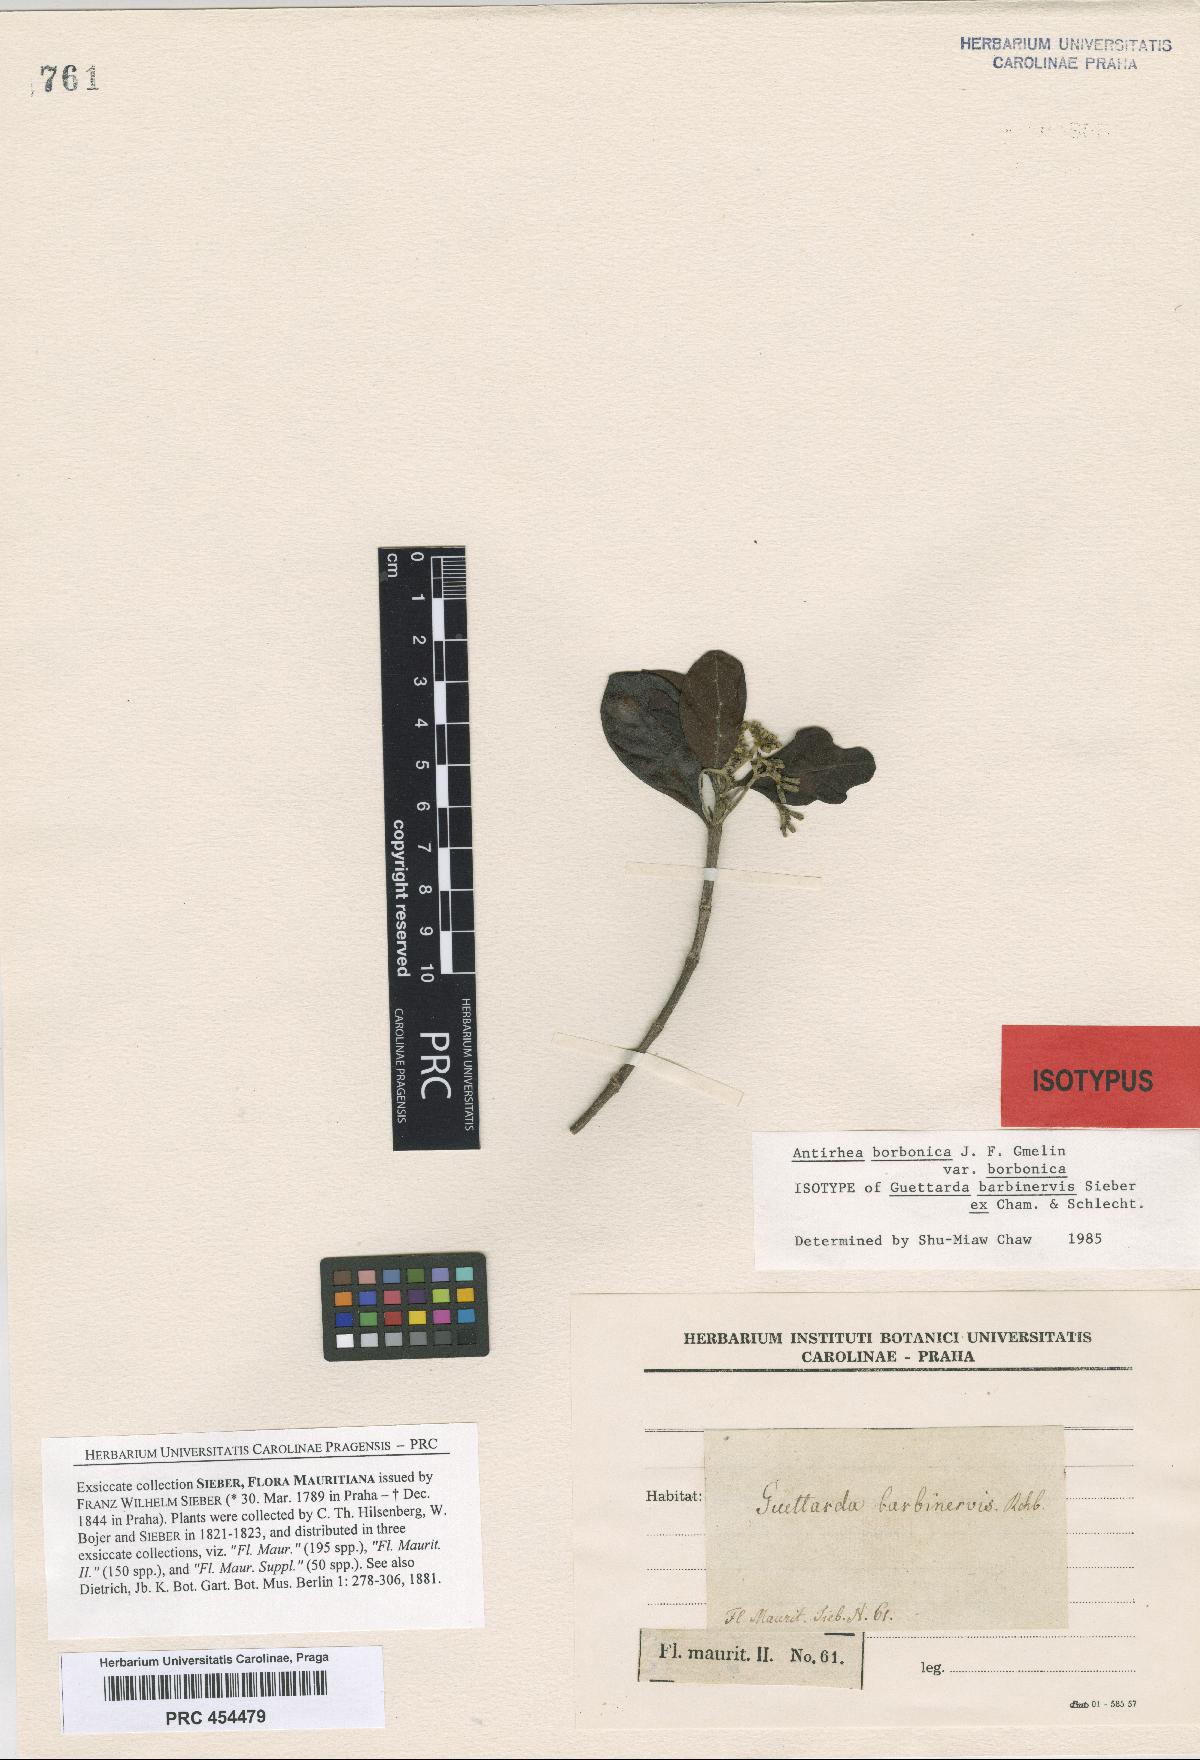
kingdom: Plantae
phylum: Tracheophyta
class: Magnoliopsida
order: Gentianales
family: Rubiaceae
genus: Antirhea
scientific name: Antirhea borbonica
